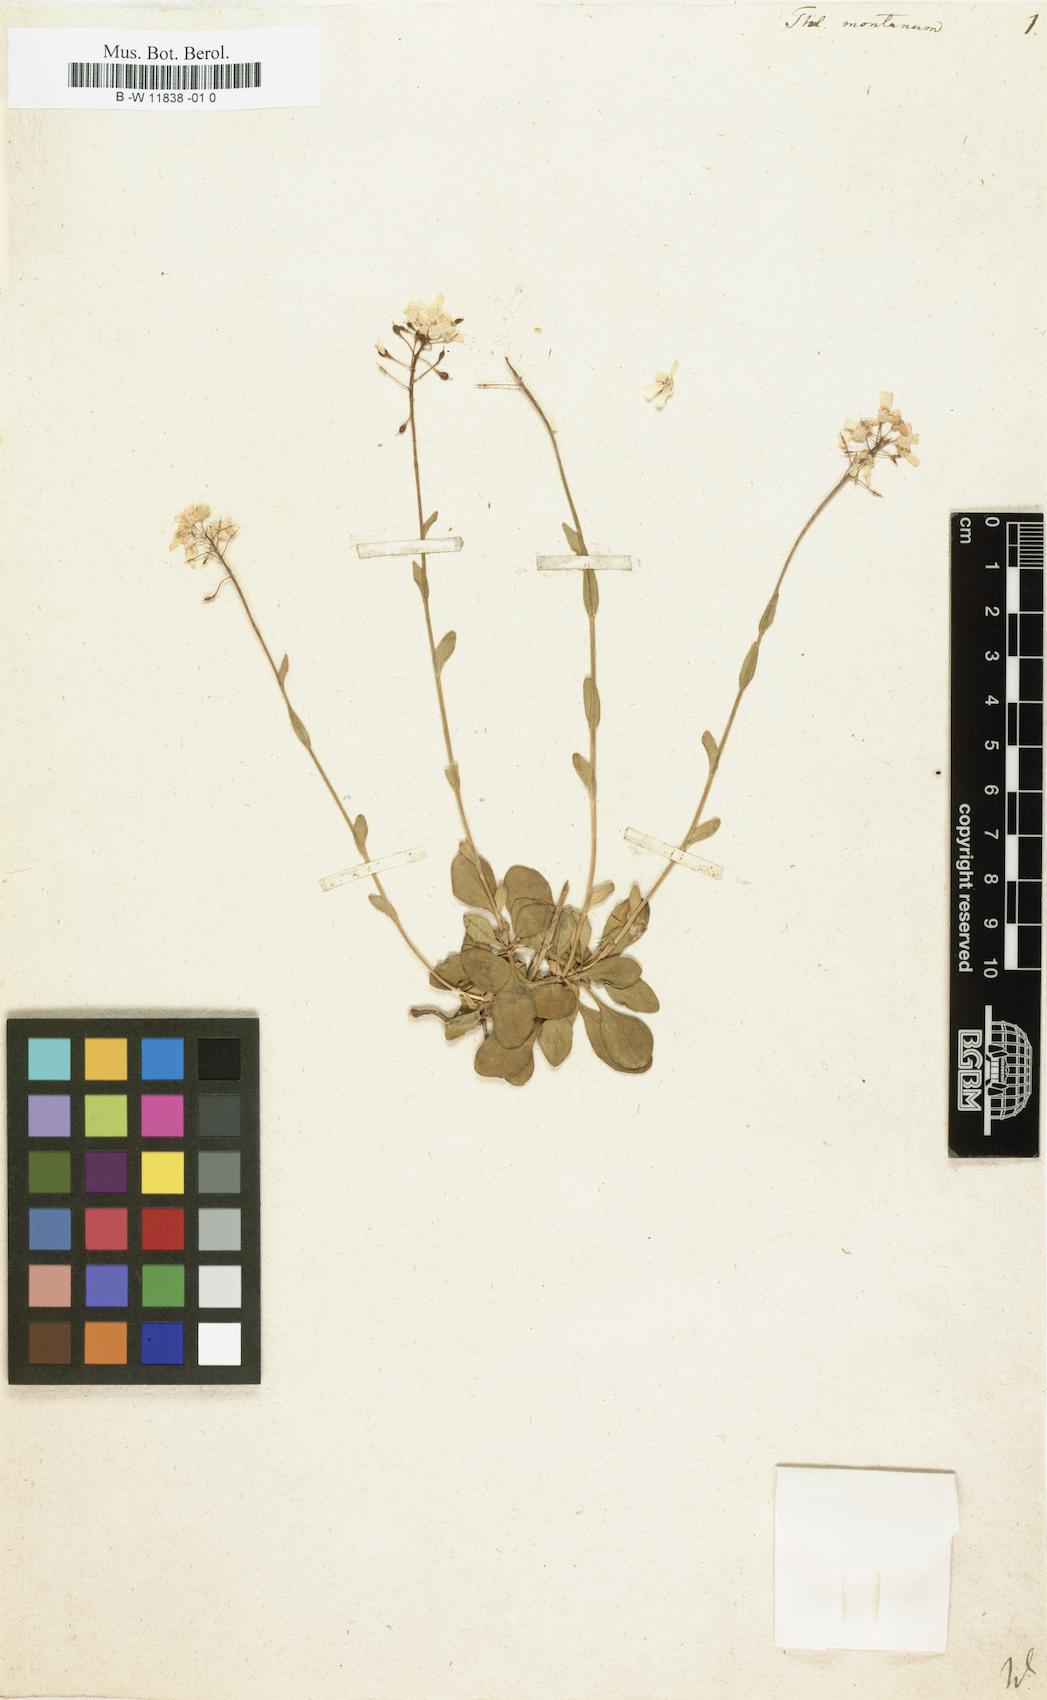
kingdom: Plantae
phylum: Tracheophyta
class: Magnoliopsida
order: Brassicales
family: Brassicaceae
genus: Thlaspi
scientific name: Thlaspi montanum
